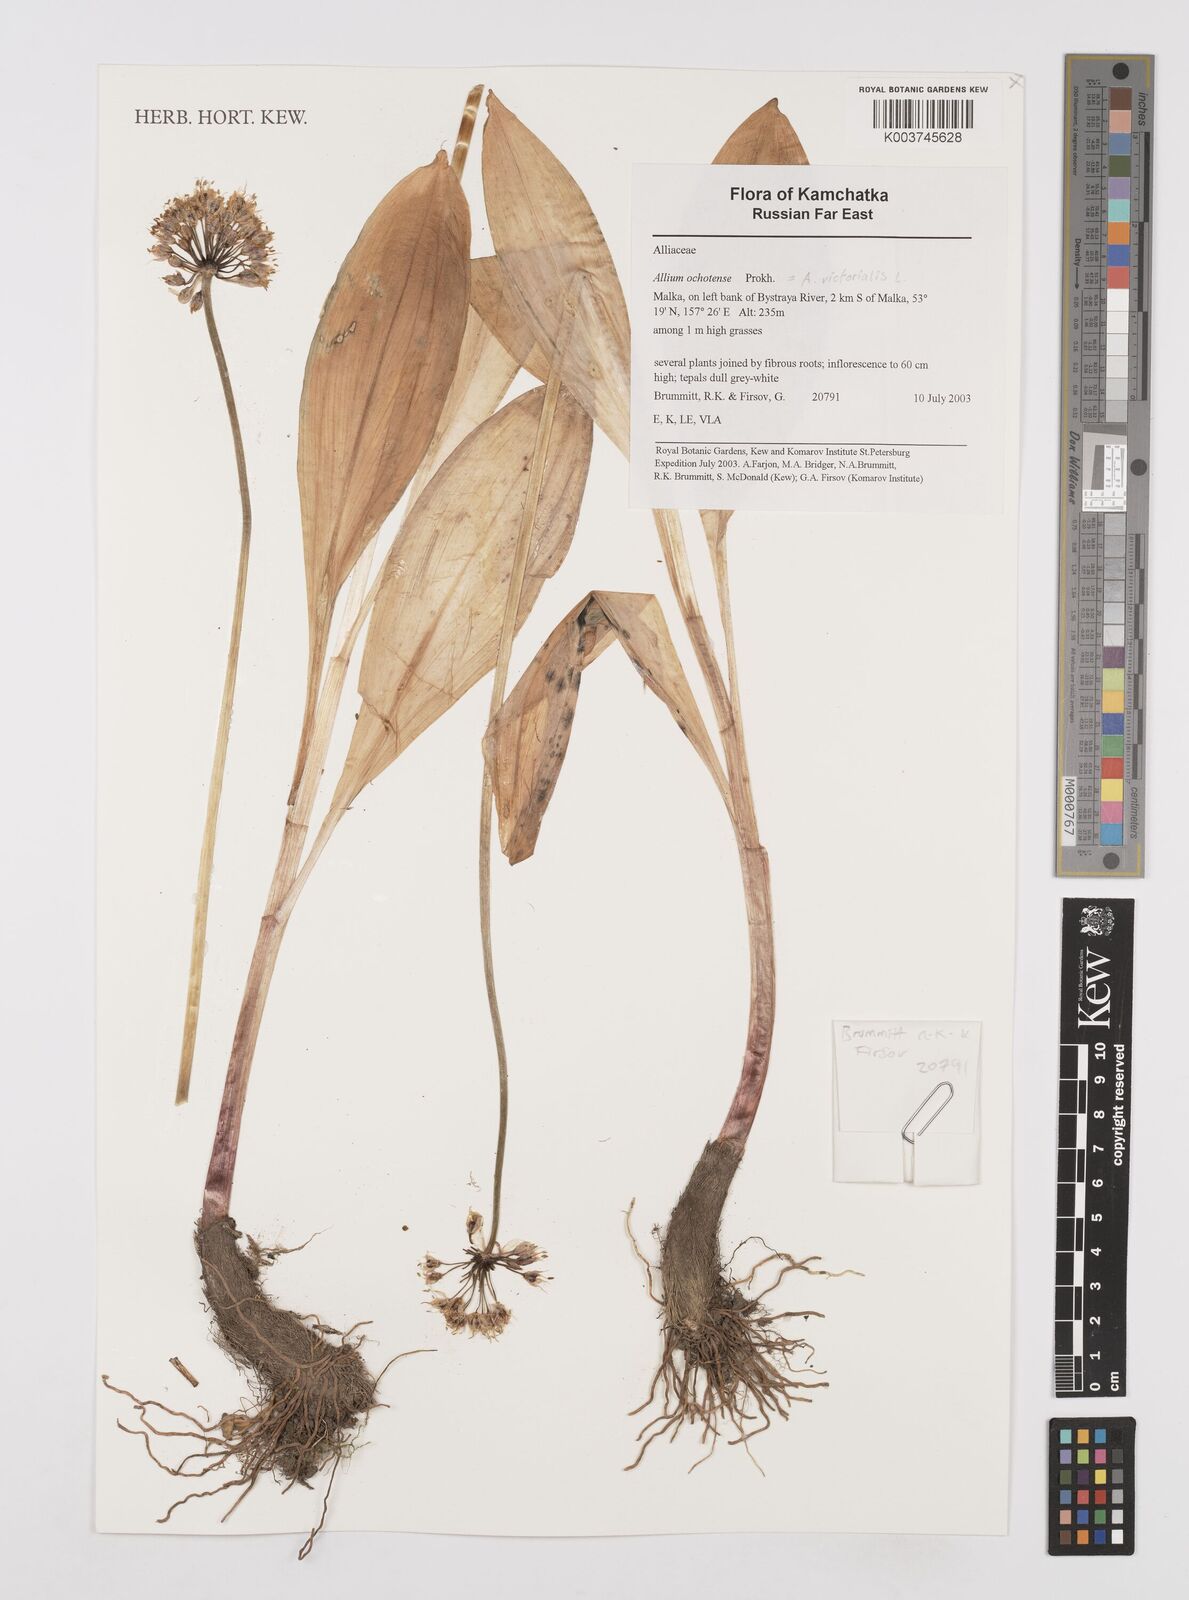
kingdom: Plantae
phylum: Tracheophyta
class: Liliopsida
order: Asparagales
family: Amaryllidaceae
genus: Allium
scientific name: Allium victorialis
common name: Alpine leek
